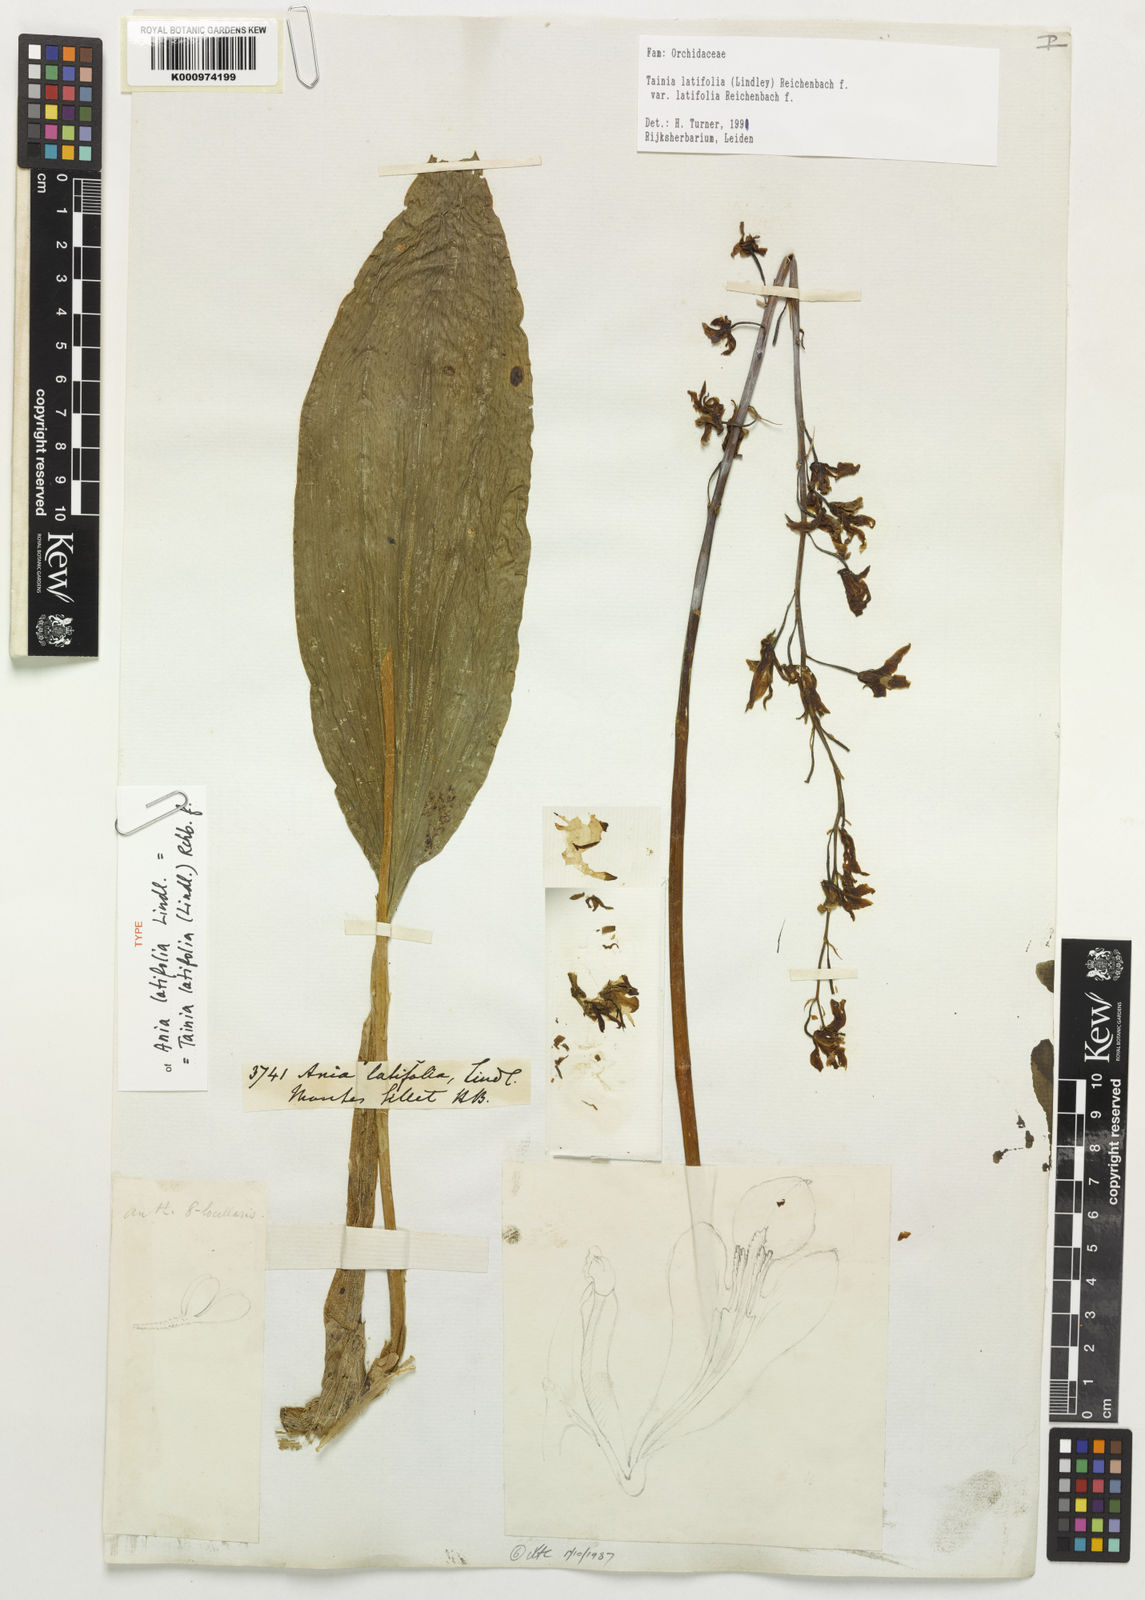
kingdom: Plantae
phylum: Tracheophyta
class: Liliopsida
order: Asparagales
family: Orchidaceae
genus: Tainia
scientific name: Tainia latifolia
